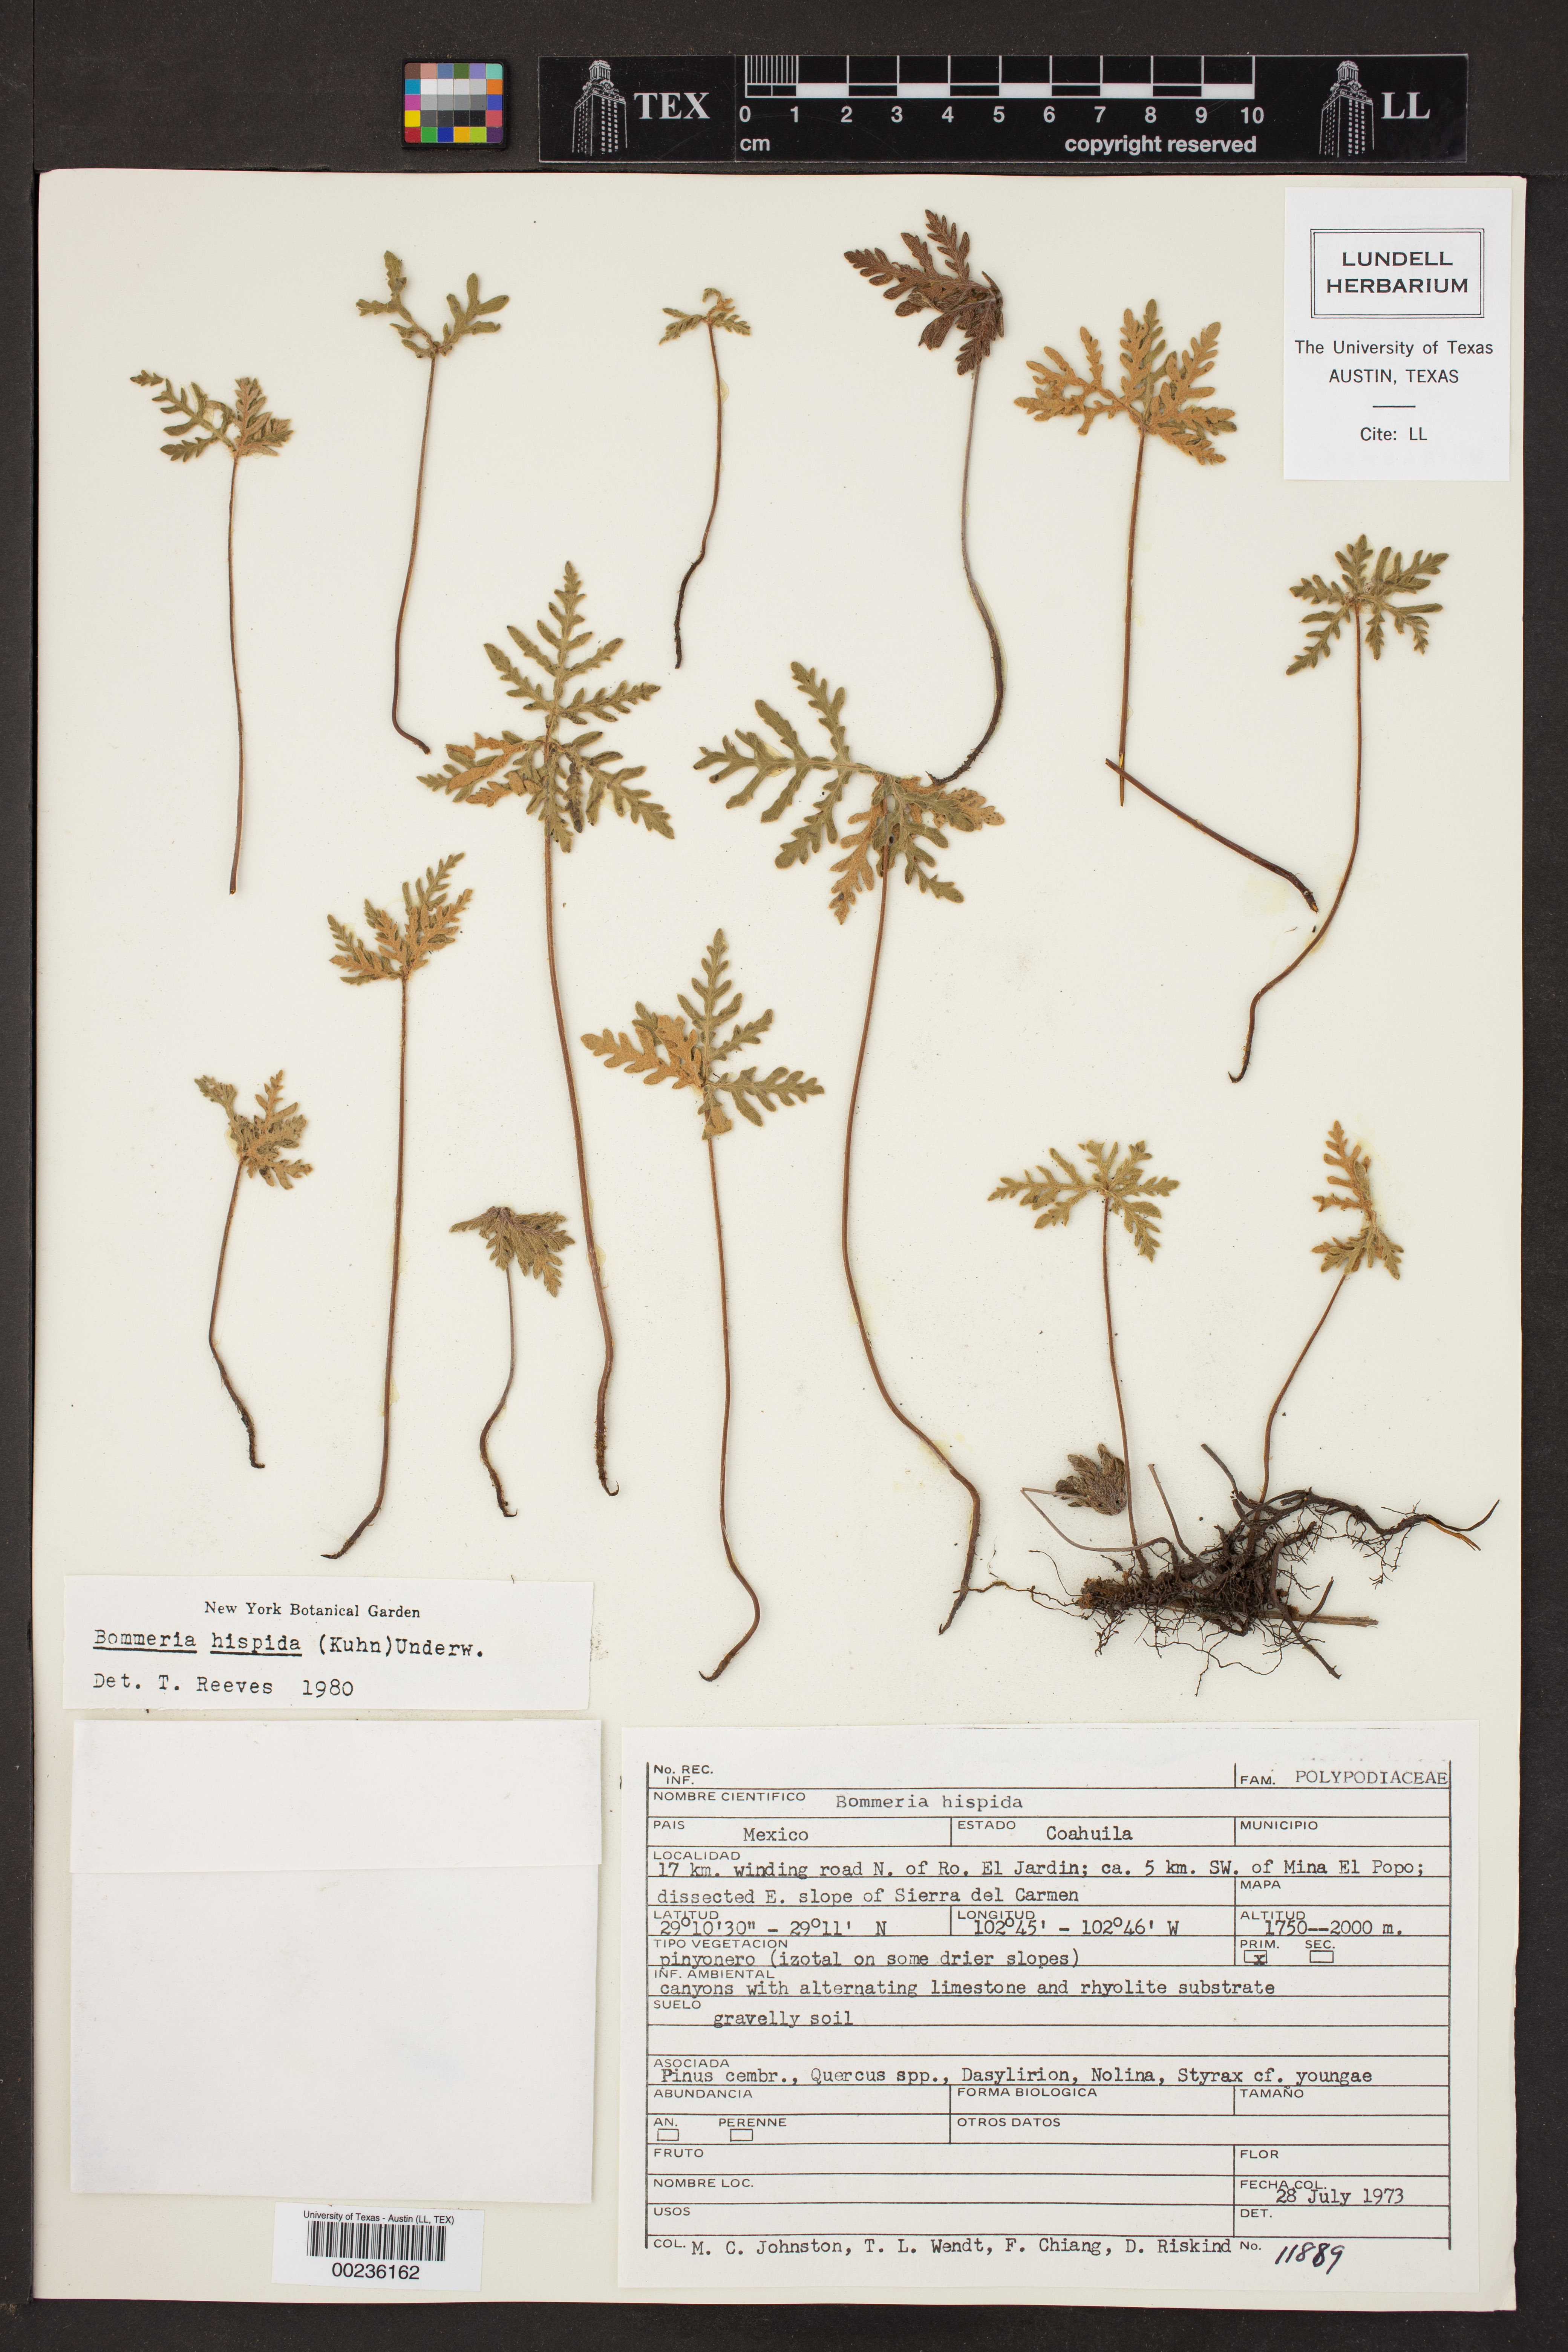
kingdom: Plantae
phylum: Tracheophyta
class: Polypodiopsida
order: Polypodiales
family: Pteridaceae
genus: Bommeria
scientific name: Bommeria hispida
